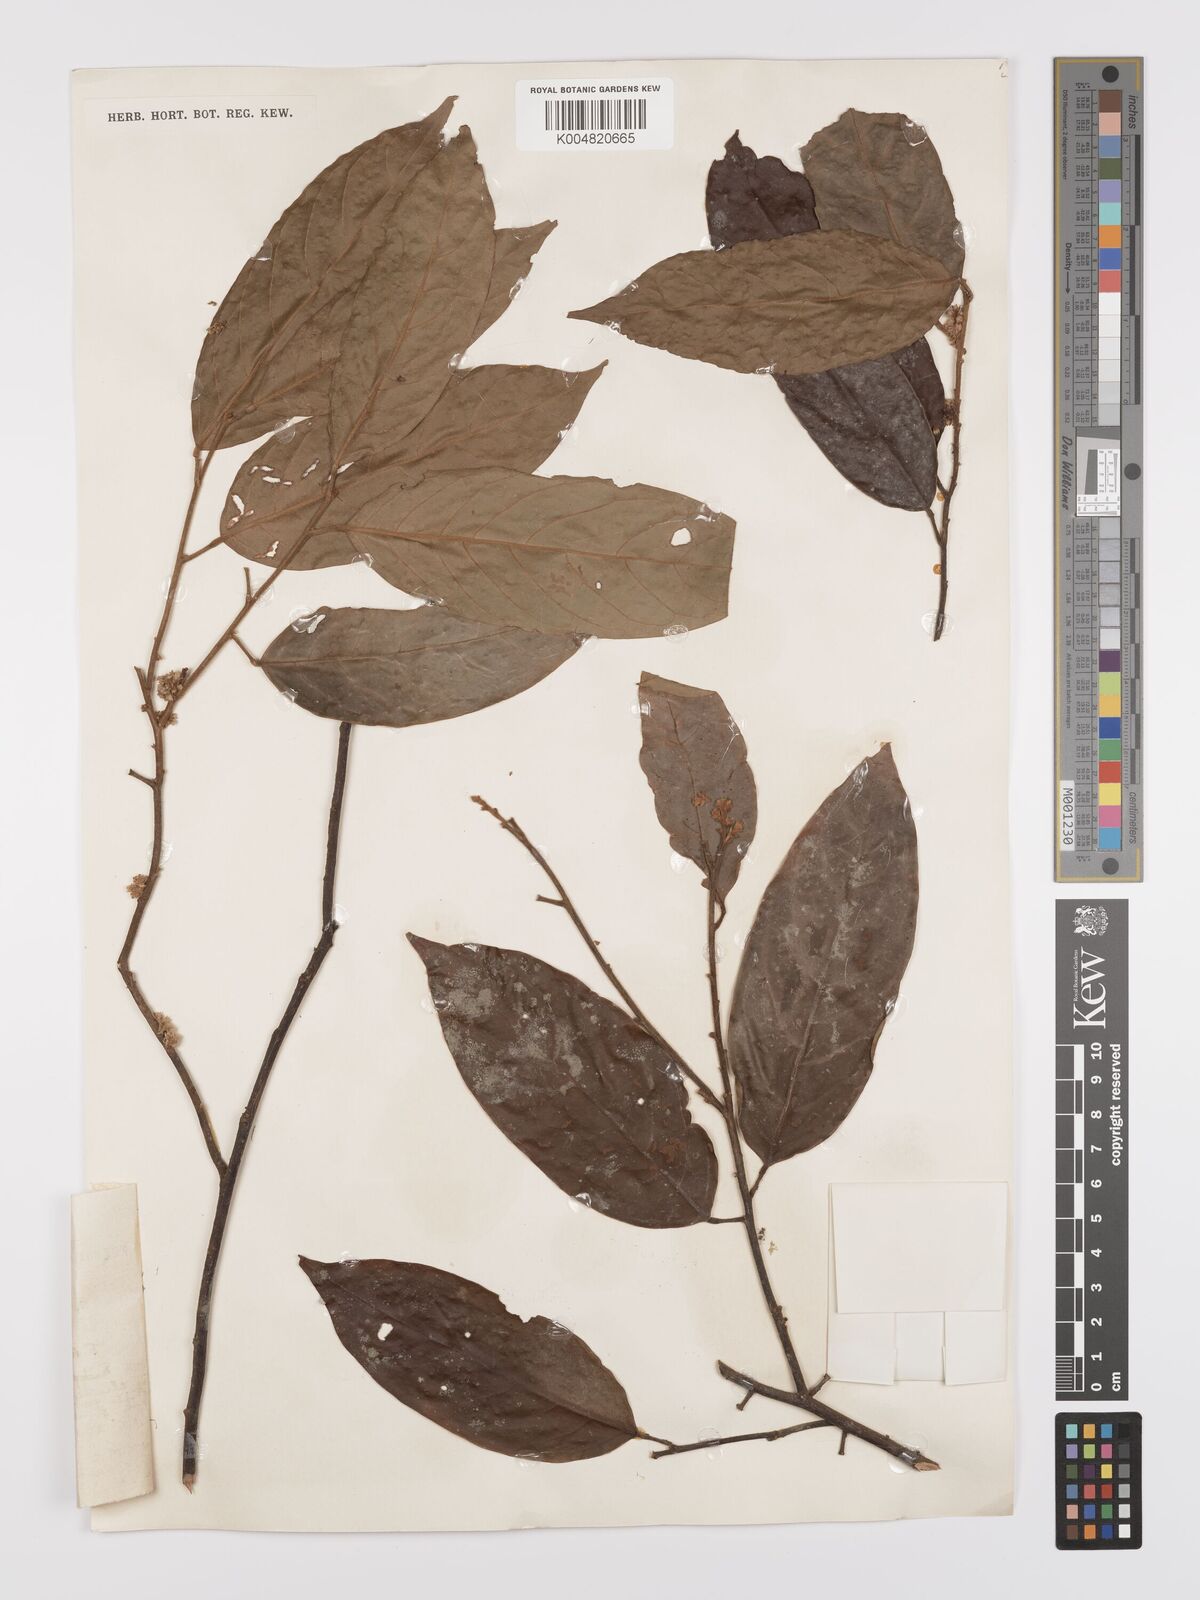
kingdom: Plantae
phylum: Tracheophyta
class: Magnoliopsida
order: Oxalidales
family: Connaraceae
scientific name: Connaraceae
